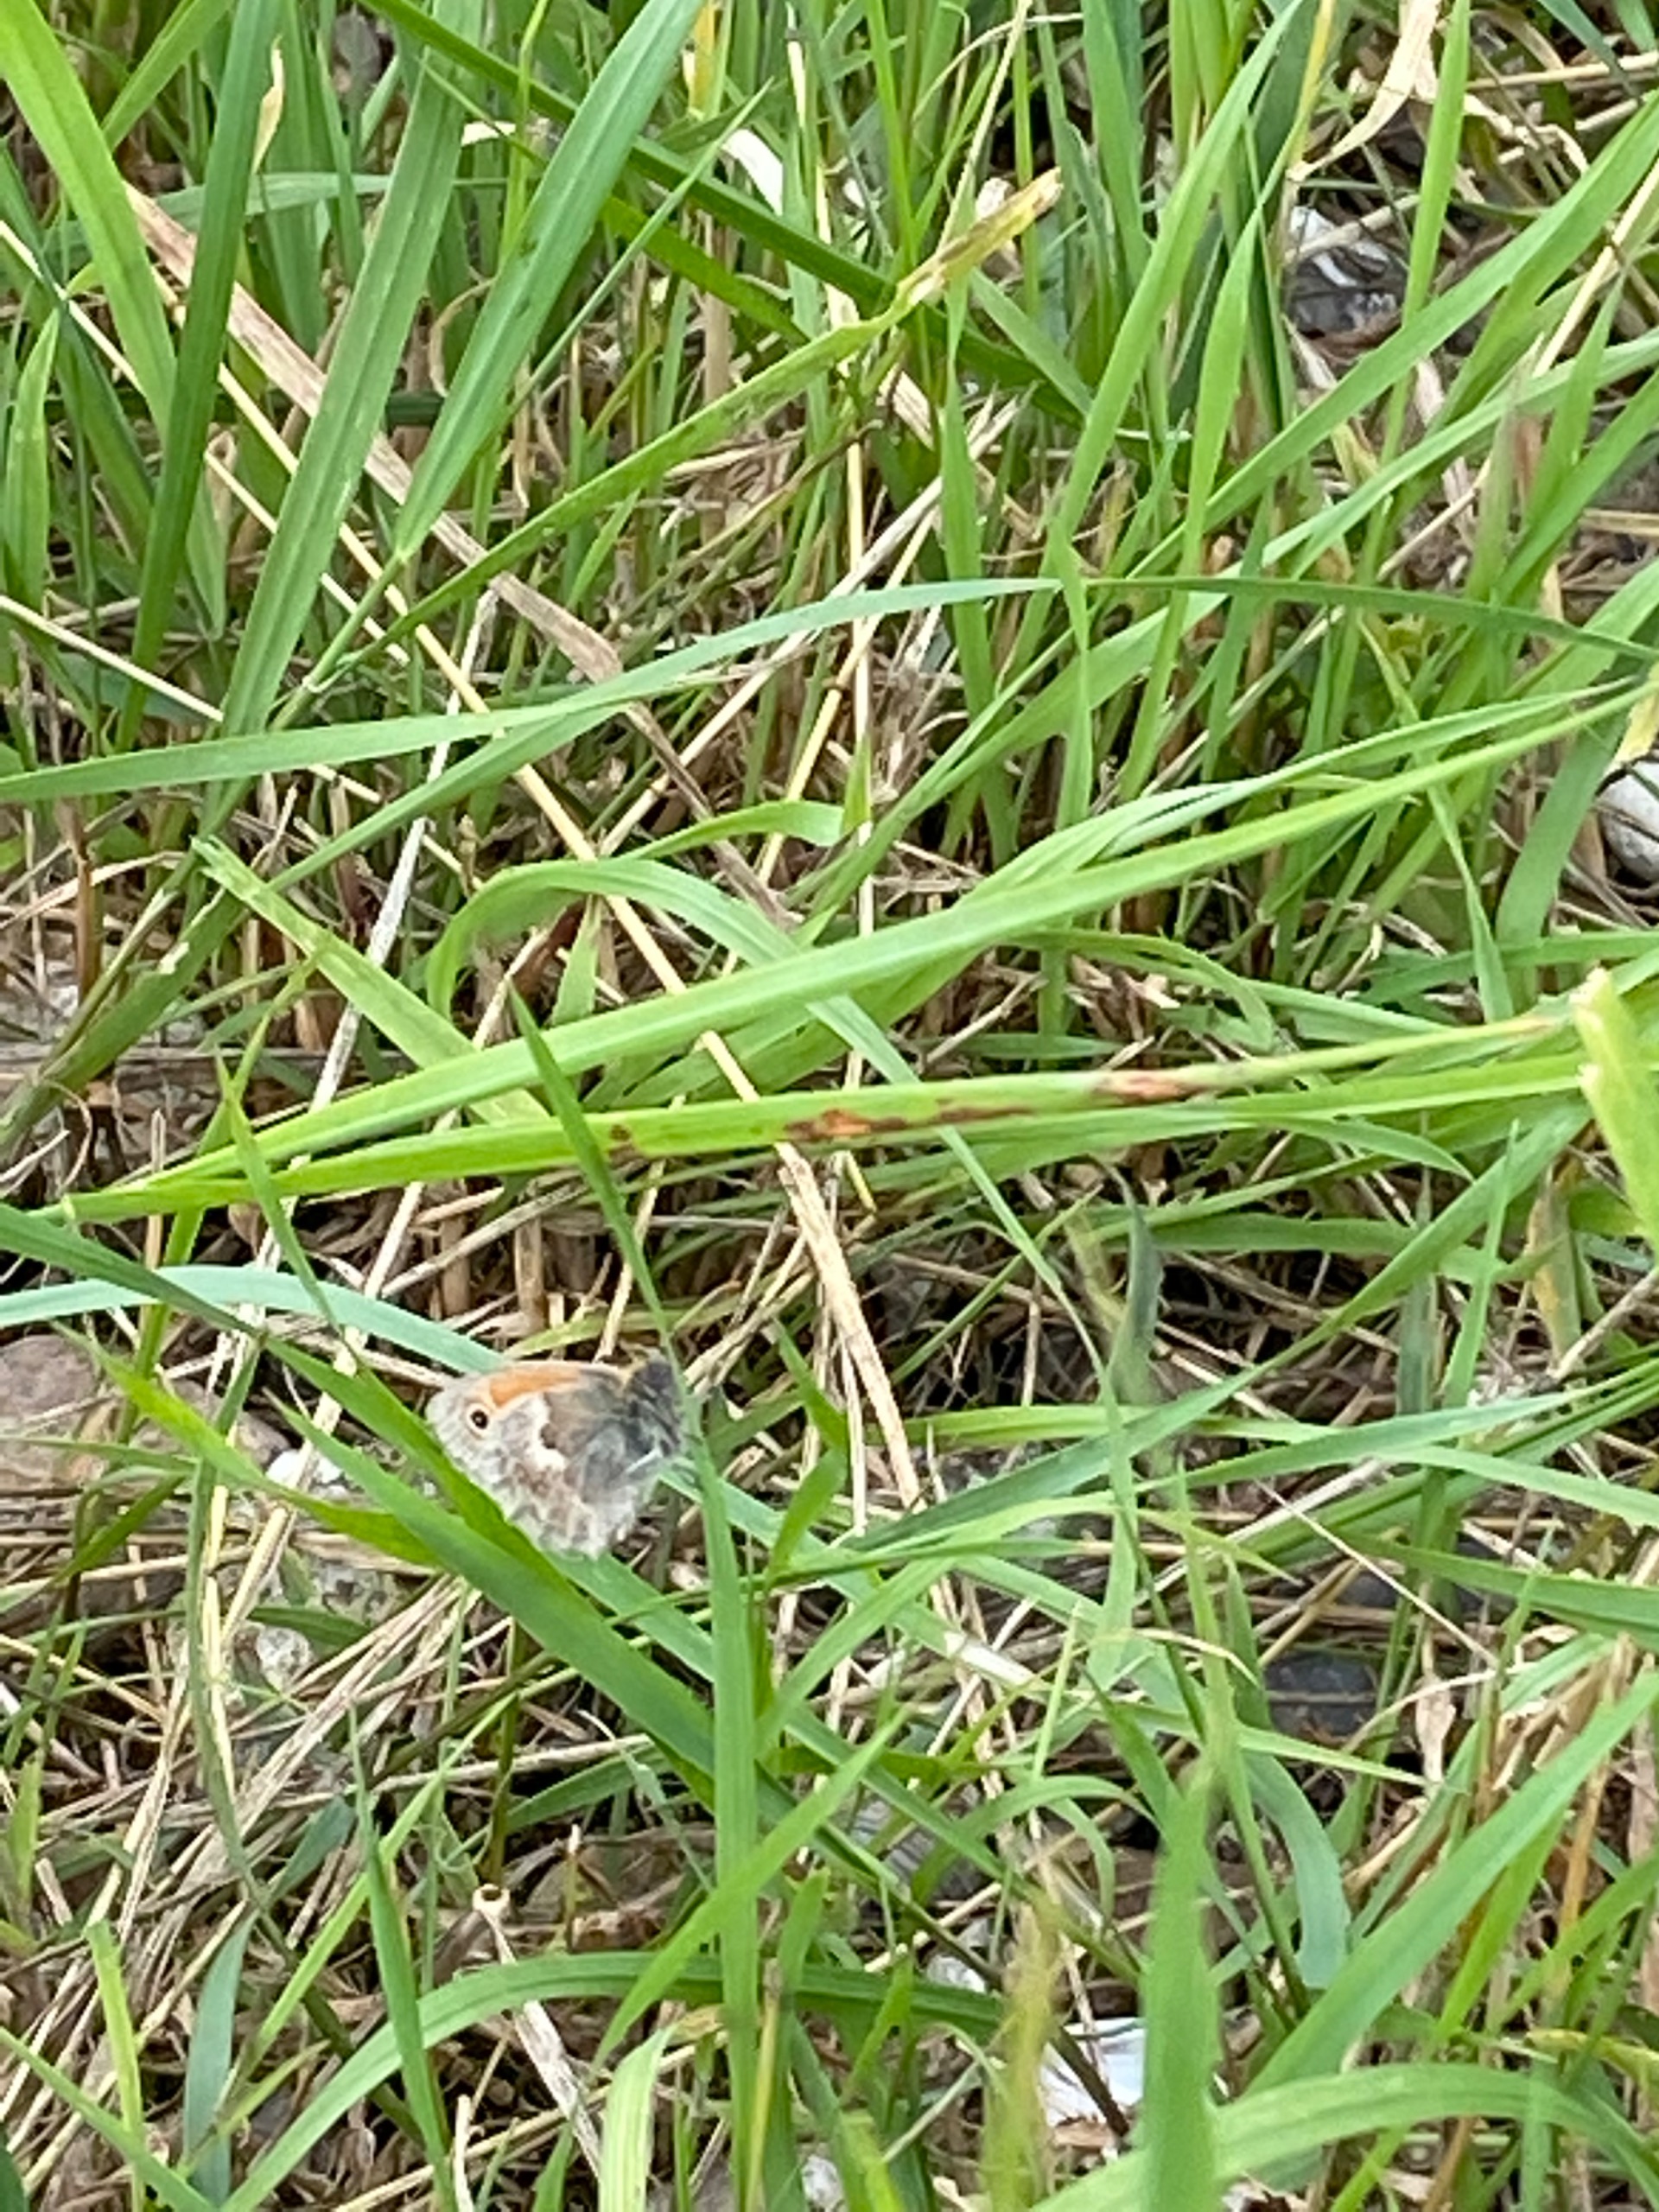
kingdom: Animalia
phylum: Arthropoda
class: Insecta
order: Lepidoptera
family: Nymphalidae
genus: Coenonympha
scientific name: Coenonympha pamphilus
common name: Okkergul randøje
